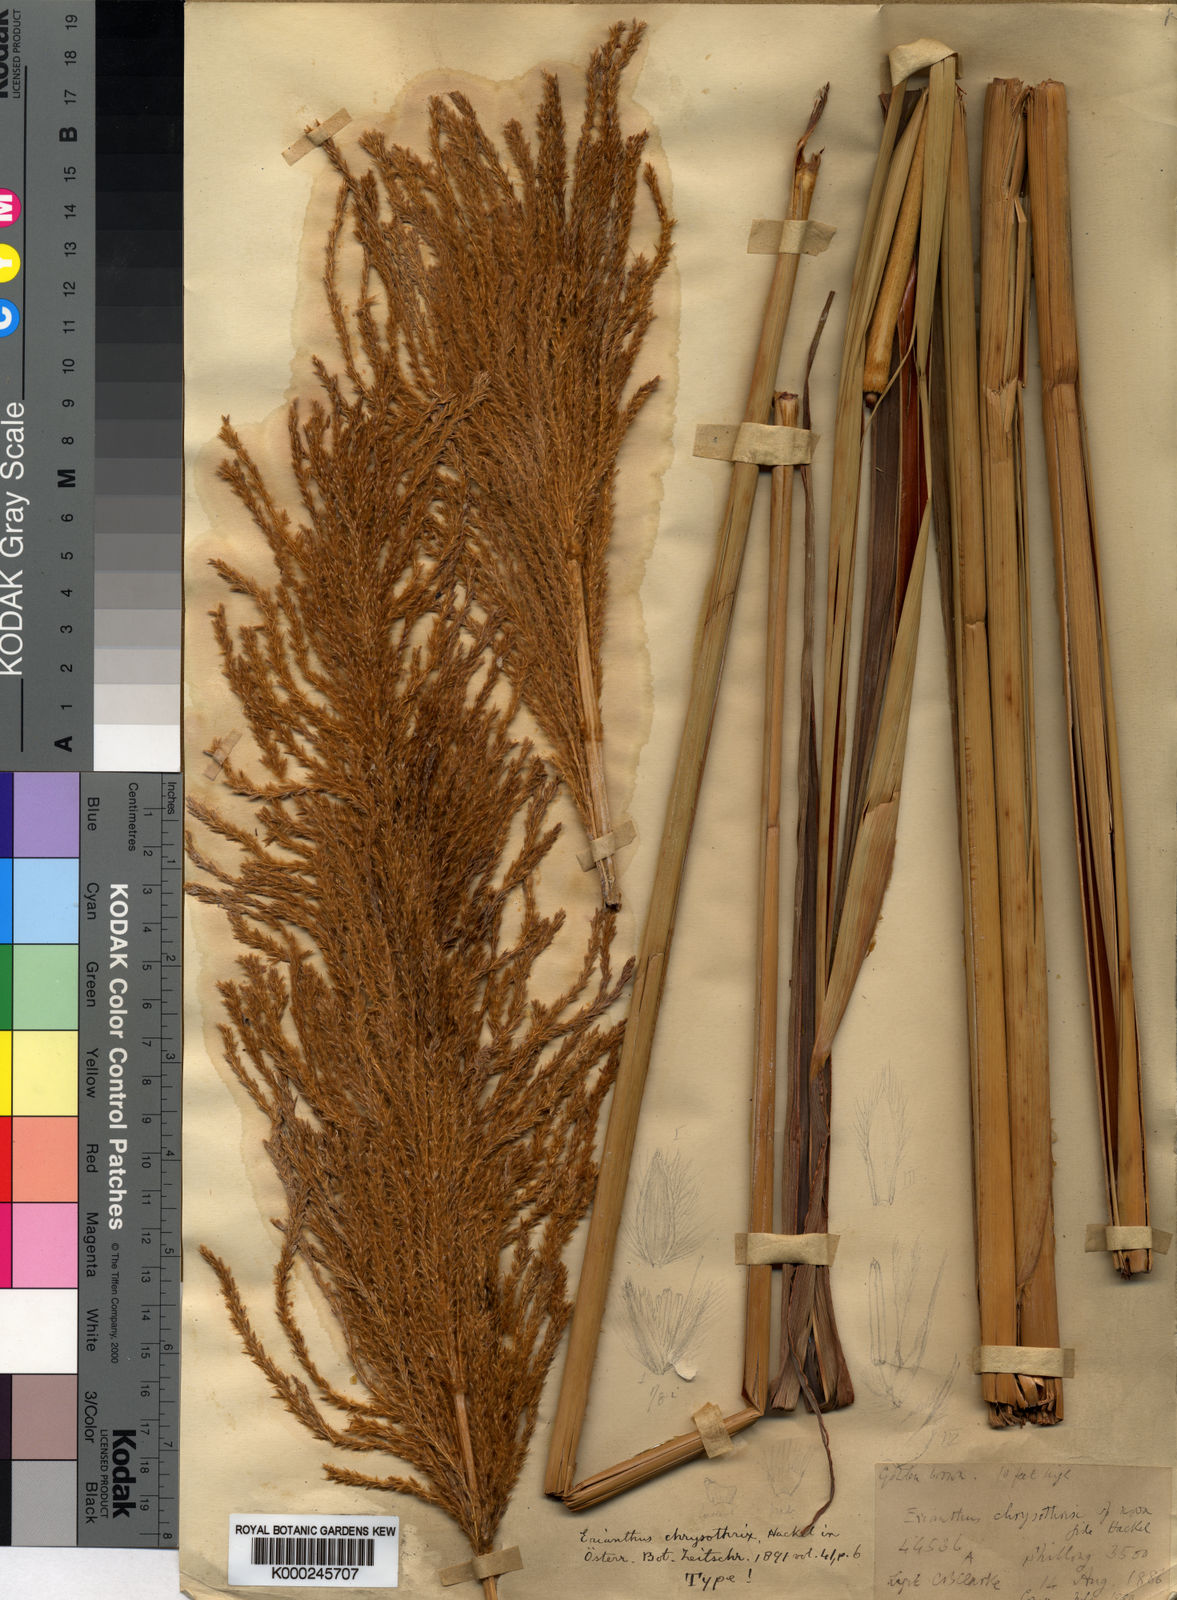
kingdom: Plantae
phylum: Tracheophyta
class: Liliopsida
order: Poales
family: Poaceae
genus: Narenga
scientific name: Narenga fallax
